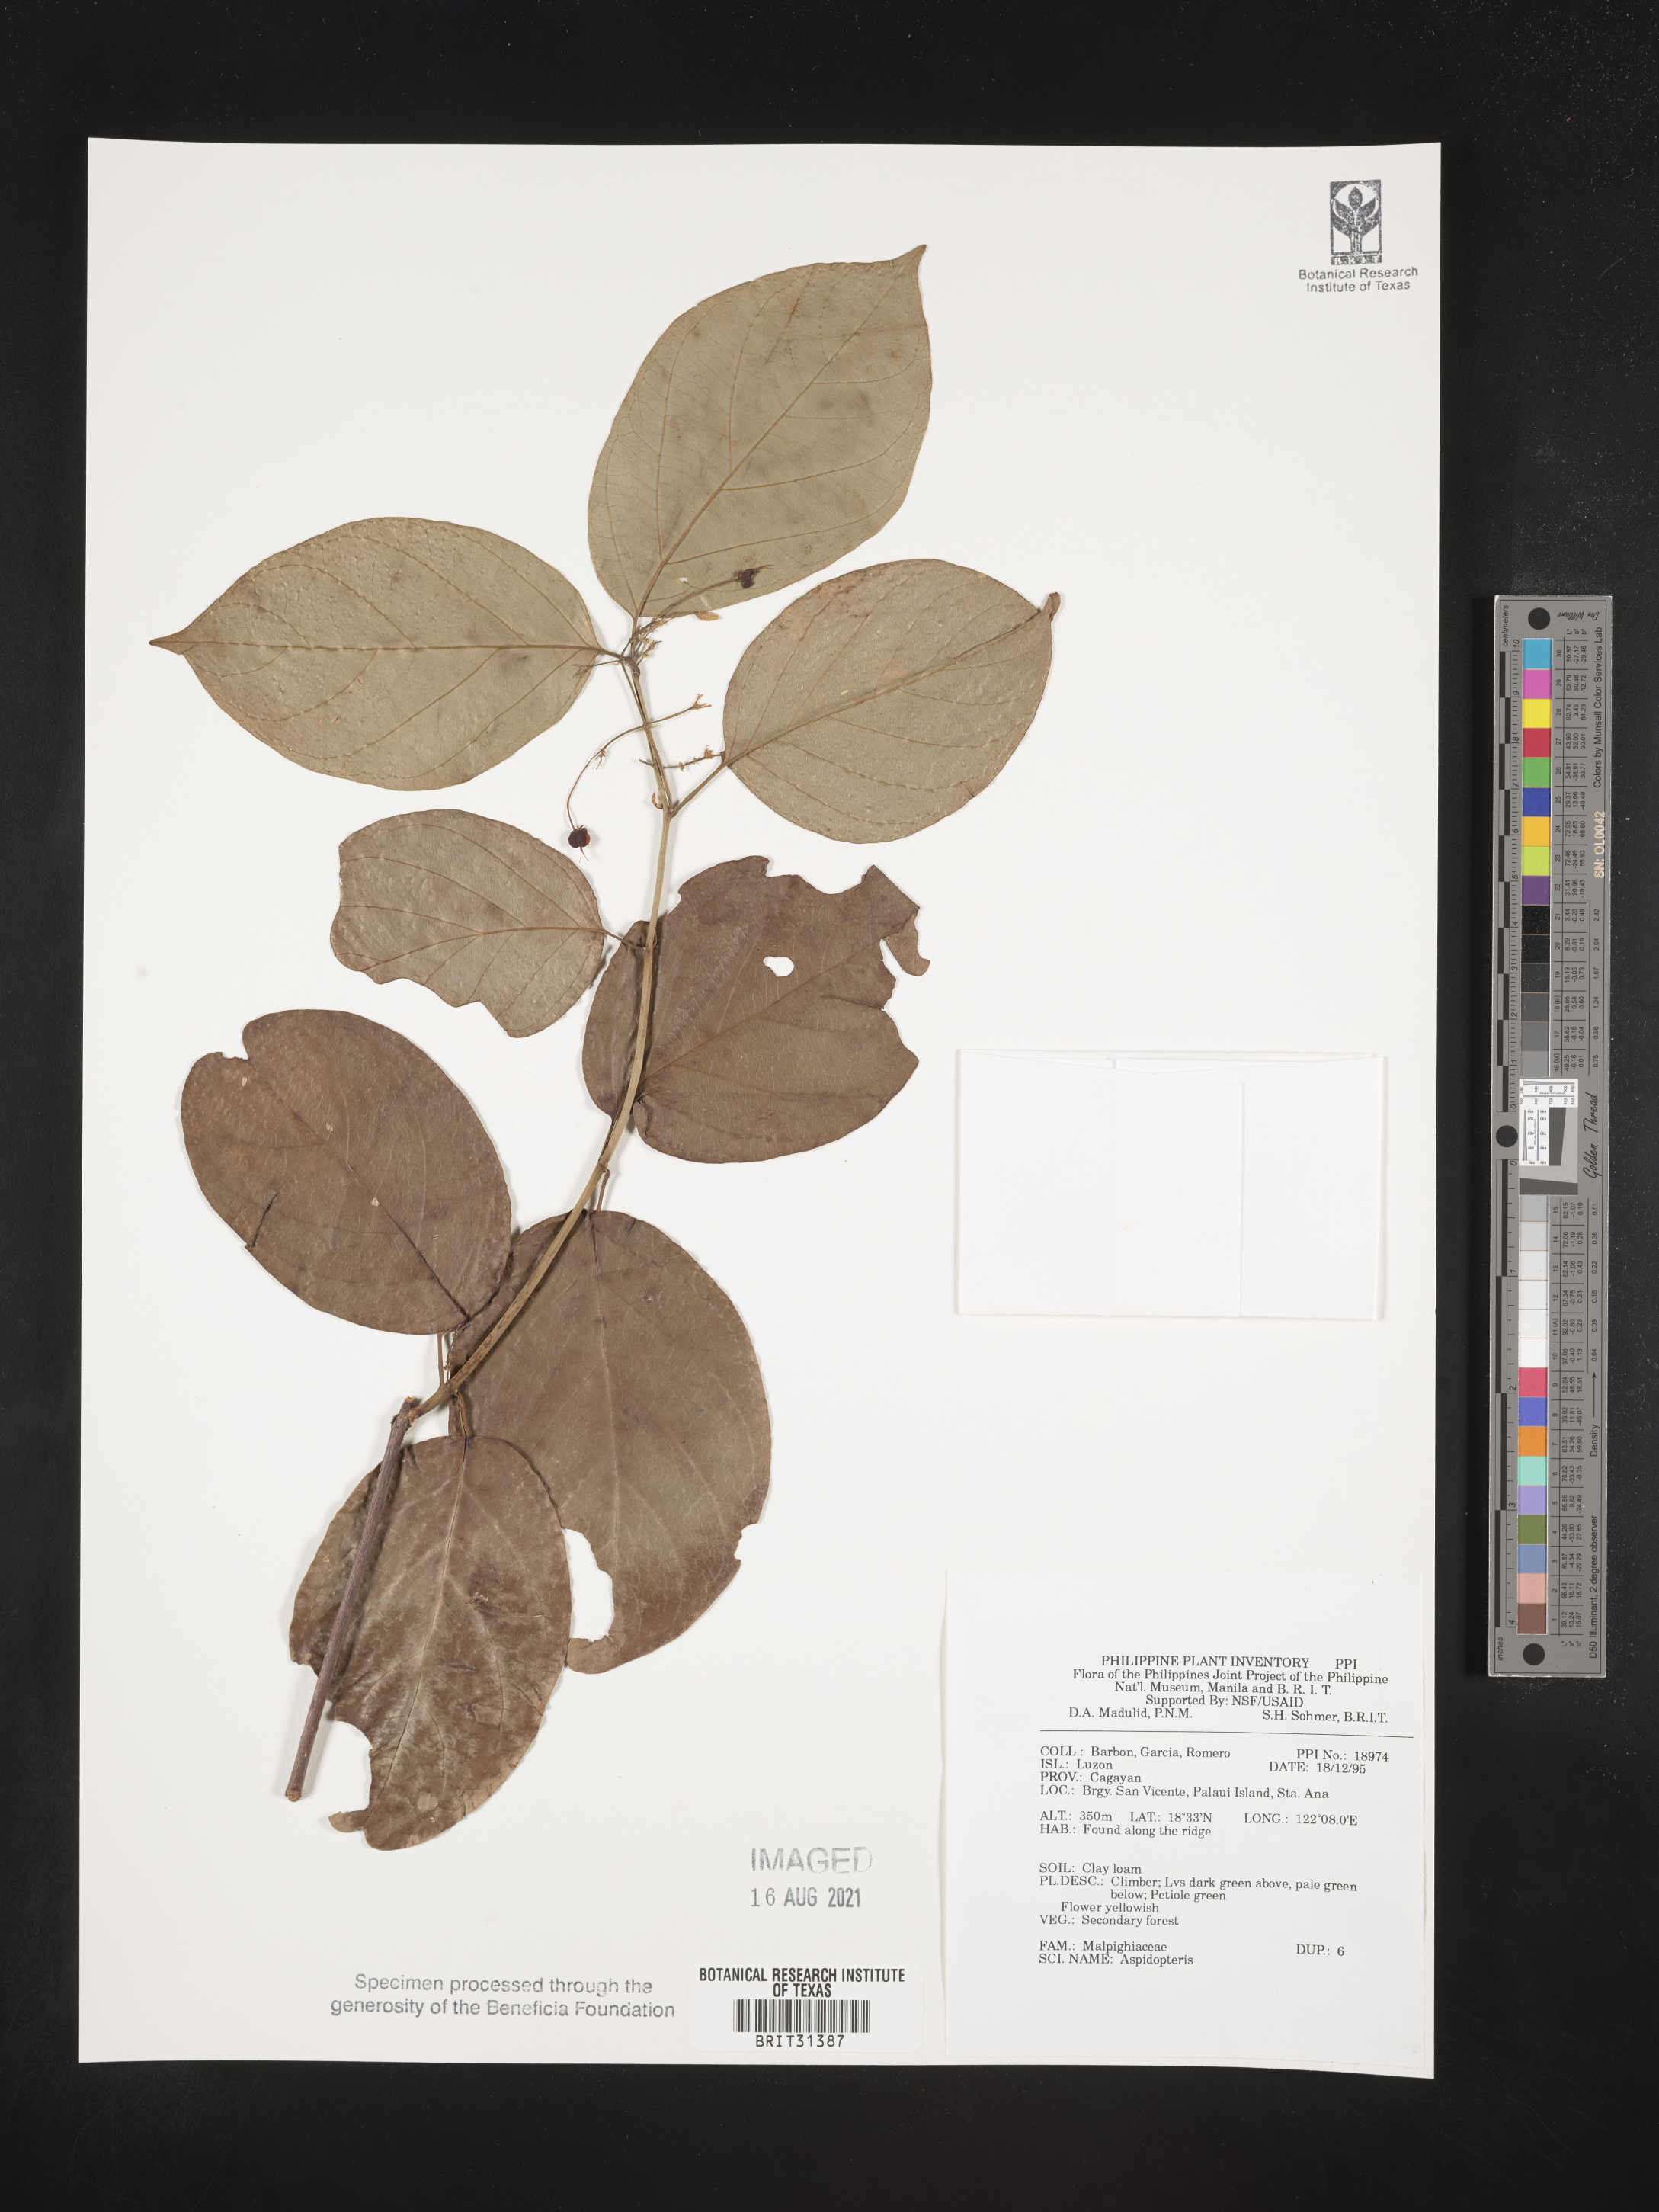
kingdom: Plantae
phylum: Tracheophyta
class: Magnoliopsida
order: Malpighiales
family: Malpighiaceae
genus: Aspidopterys
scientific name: Aspidopterys
